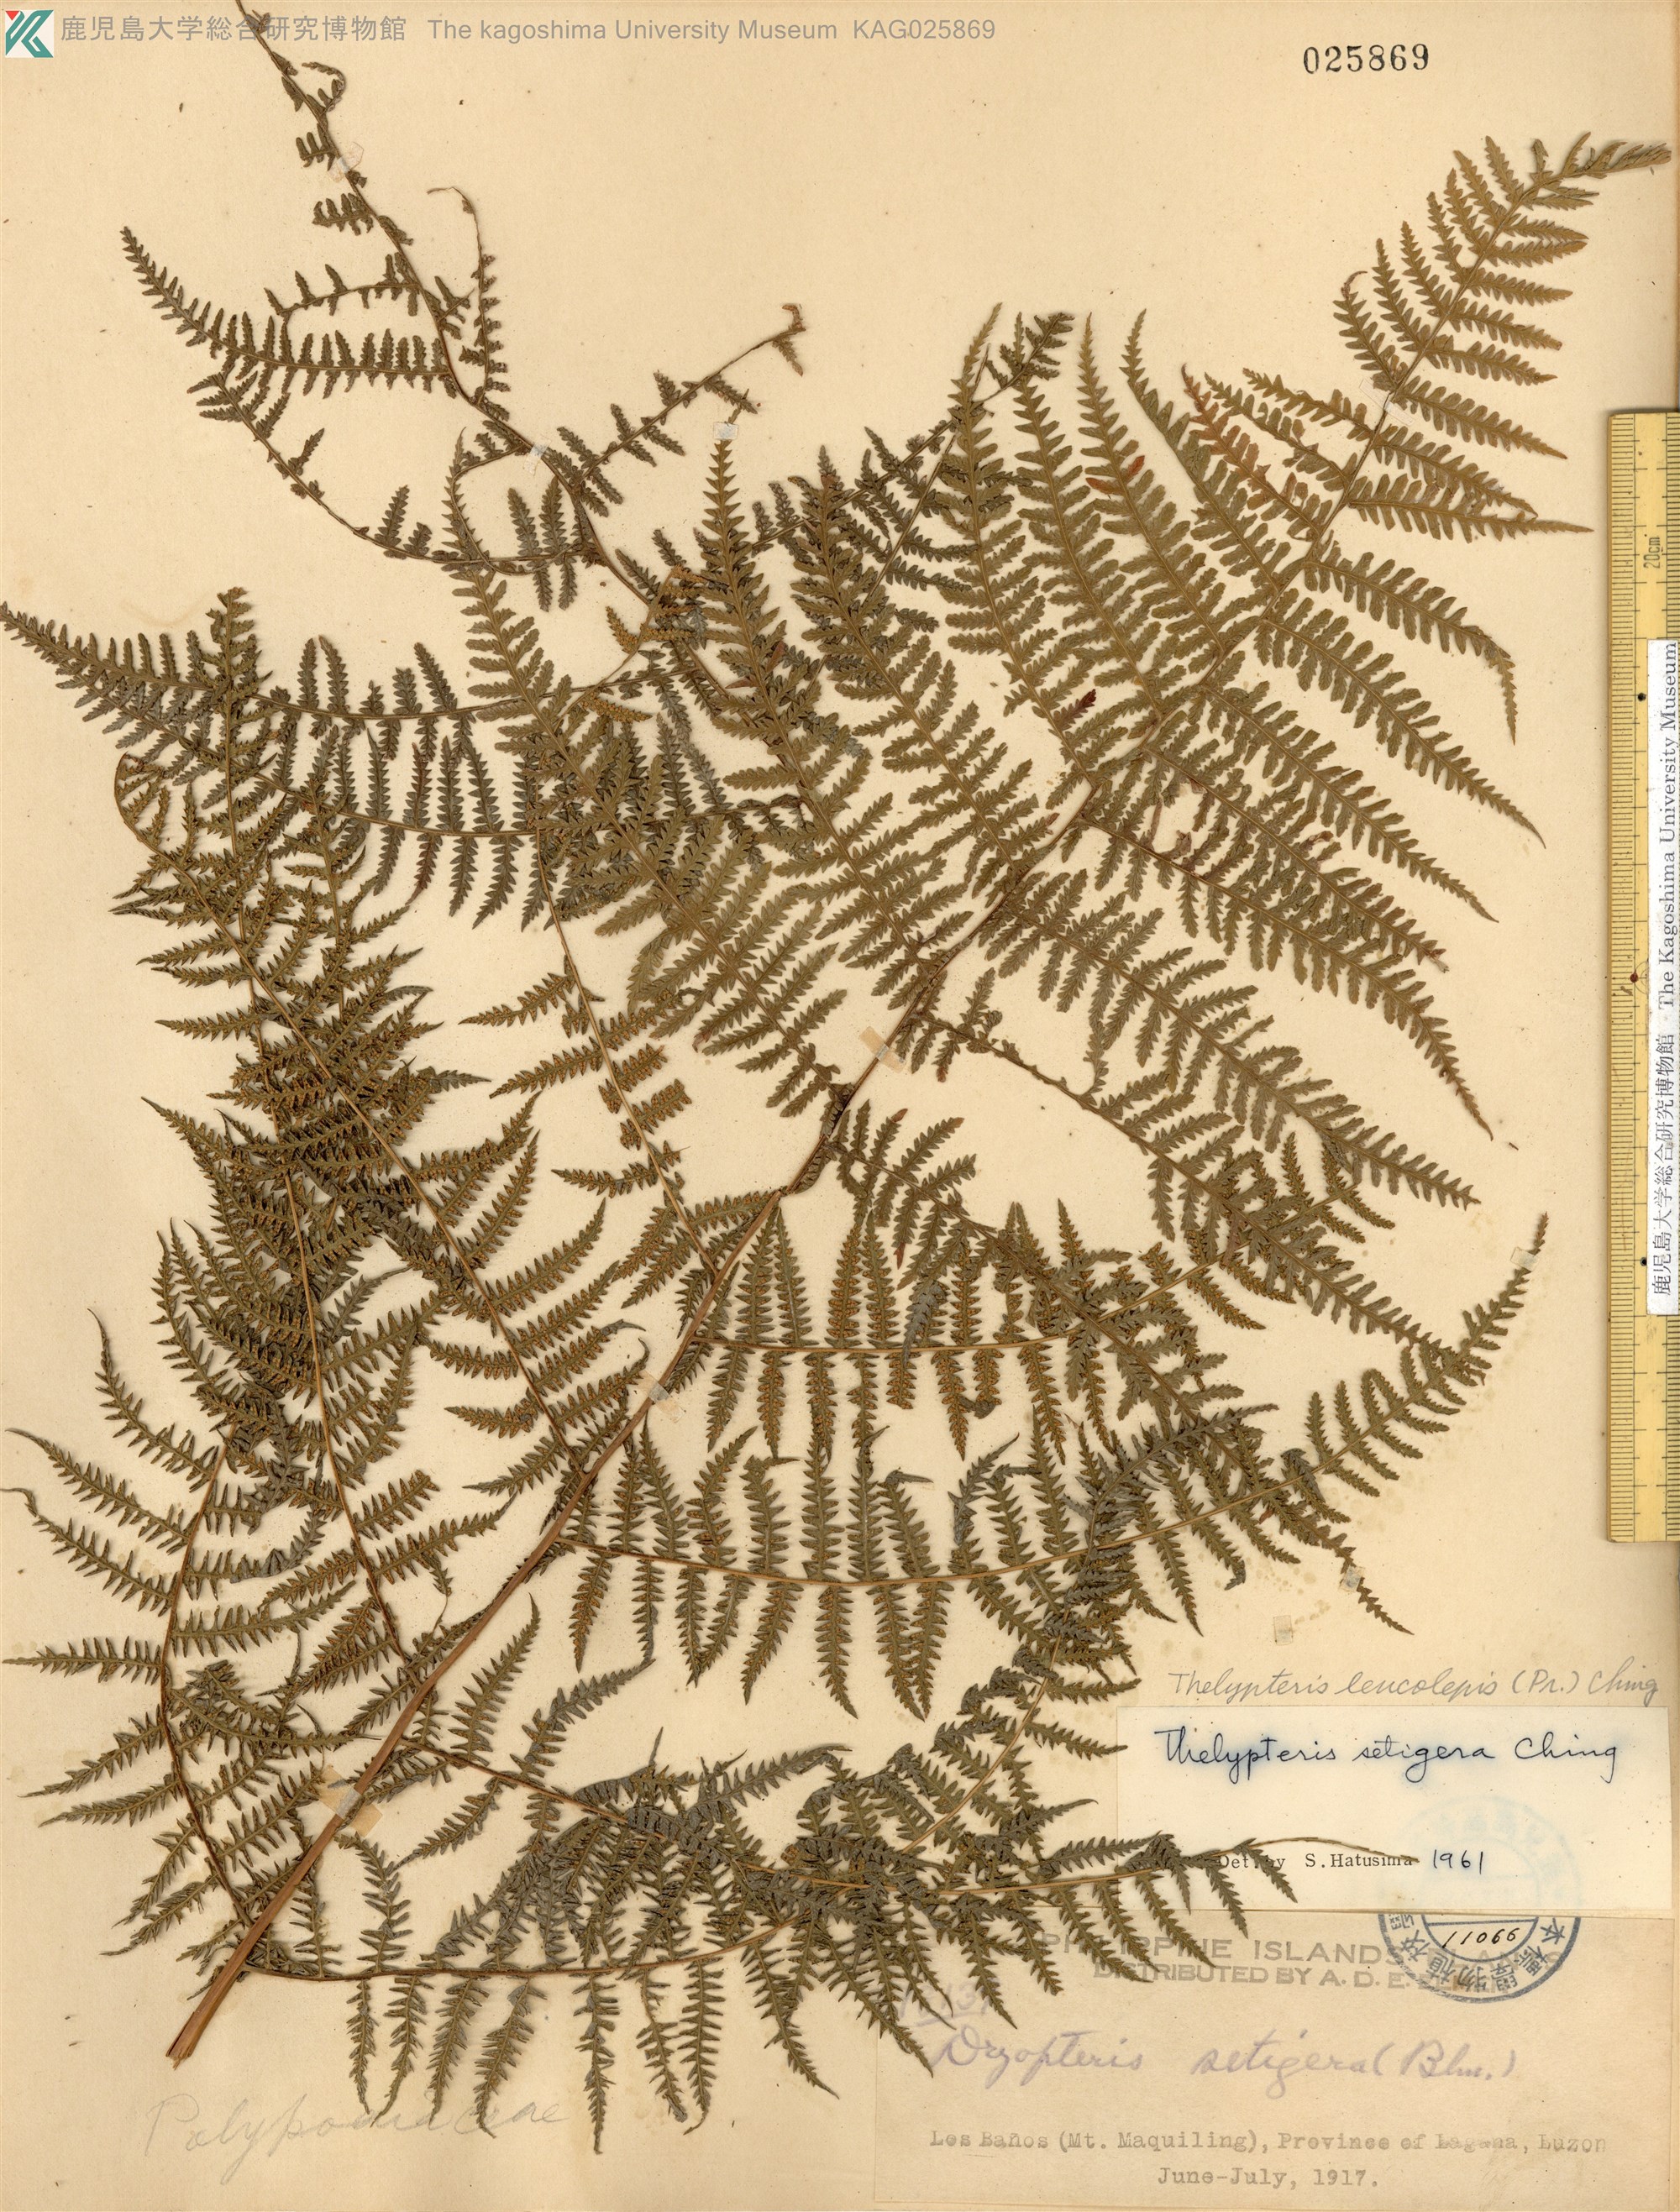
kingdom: Plantae
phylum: Tracheophyta
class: Polypodiopsida
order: Polypodiales
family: Thelypteridaceae
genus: Macrothelypteris
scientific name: Macrothelypteris polypodioides
